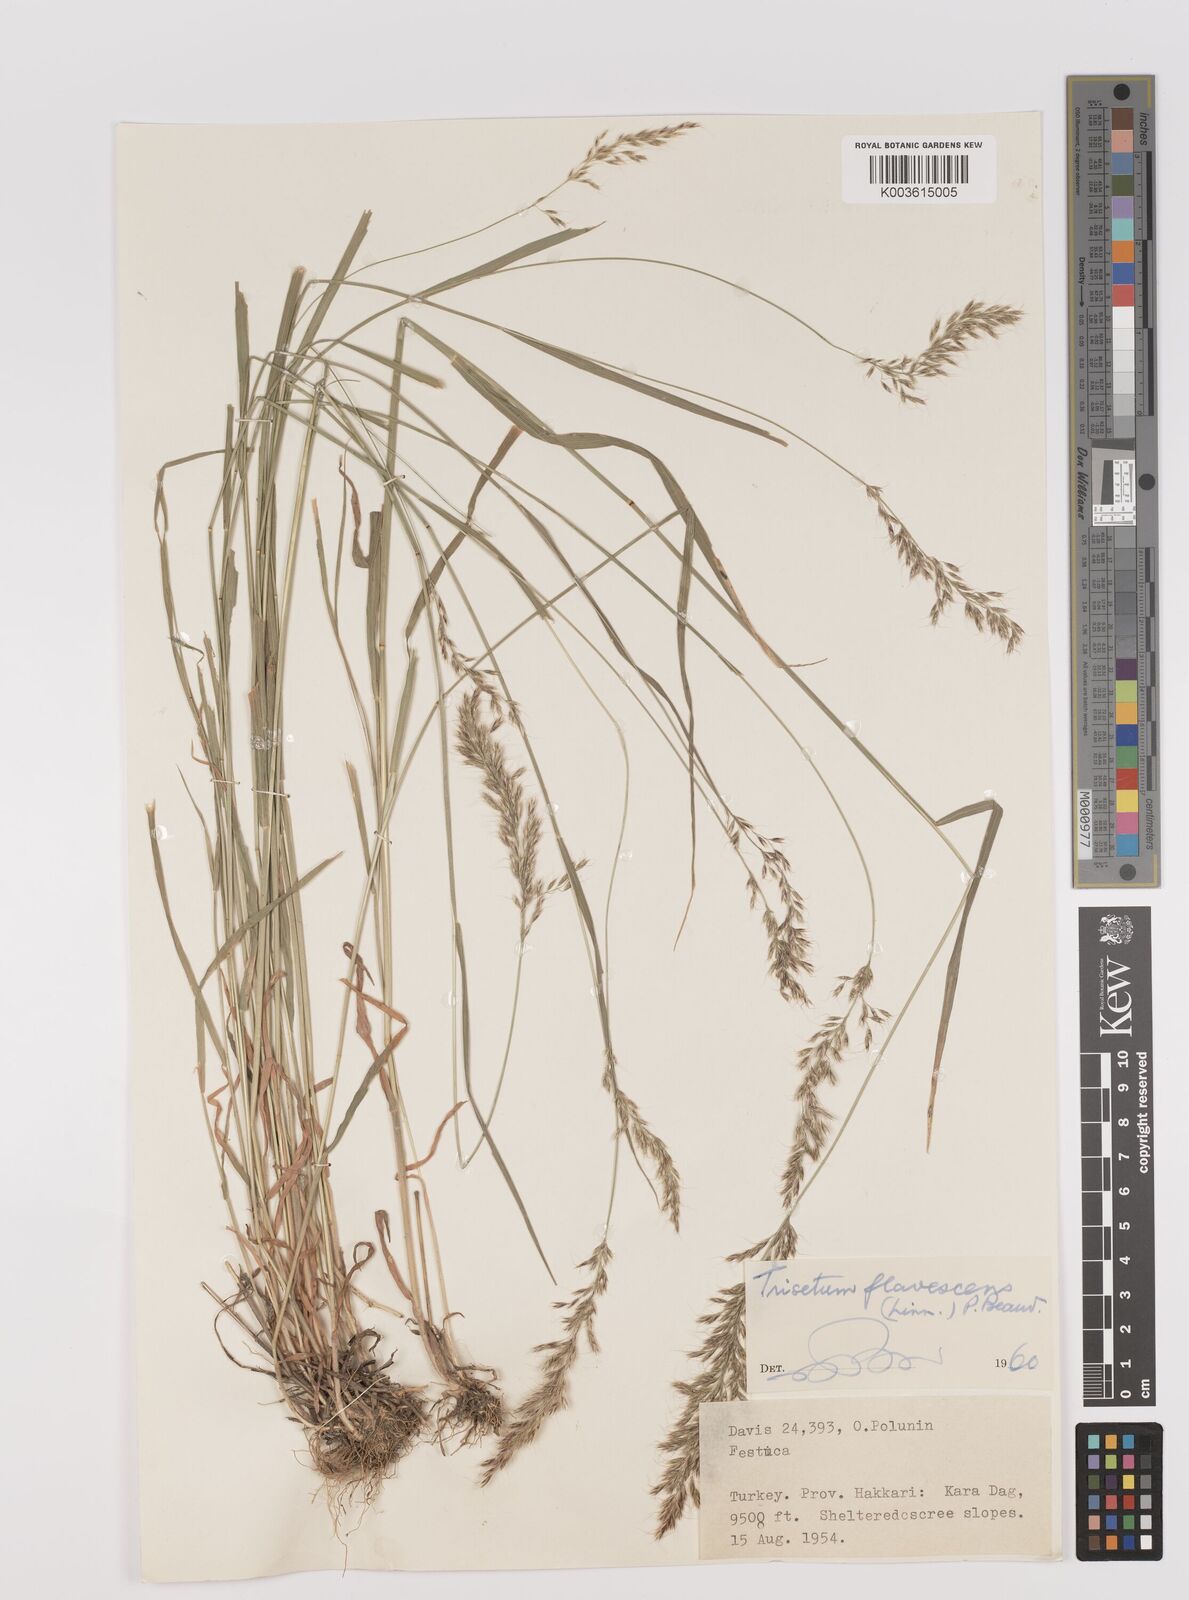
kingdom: Plantae
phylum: Tracheophyta
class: Liliopsida
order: Poales
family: Poaceae
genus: Trisetum
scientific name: Trisetum flavescens
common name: Yellow oat-grass
